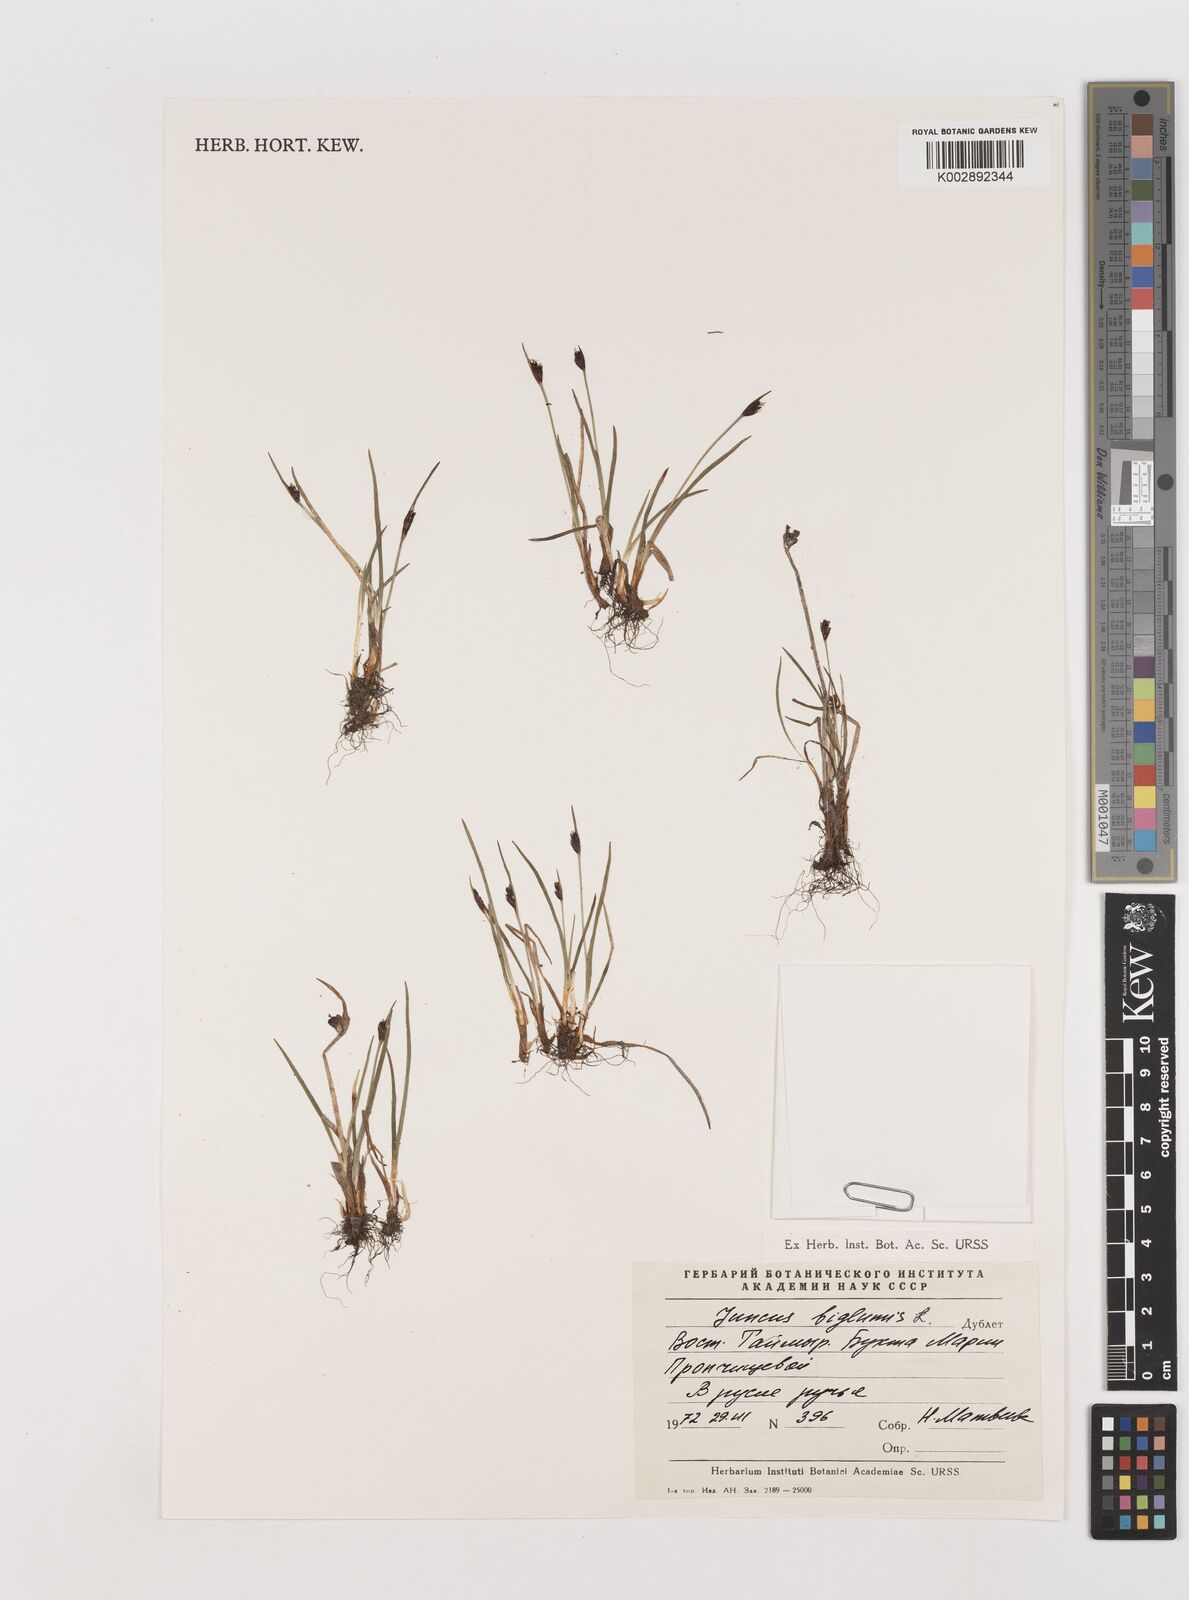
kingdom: Plantae
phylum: Tracheophyta
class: Liliopsida
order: Poales
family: Juncaceae
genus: Juncus
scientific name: Juncus biglumis
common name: Two-flowered rush
